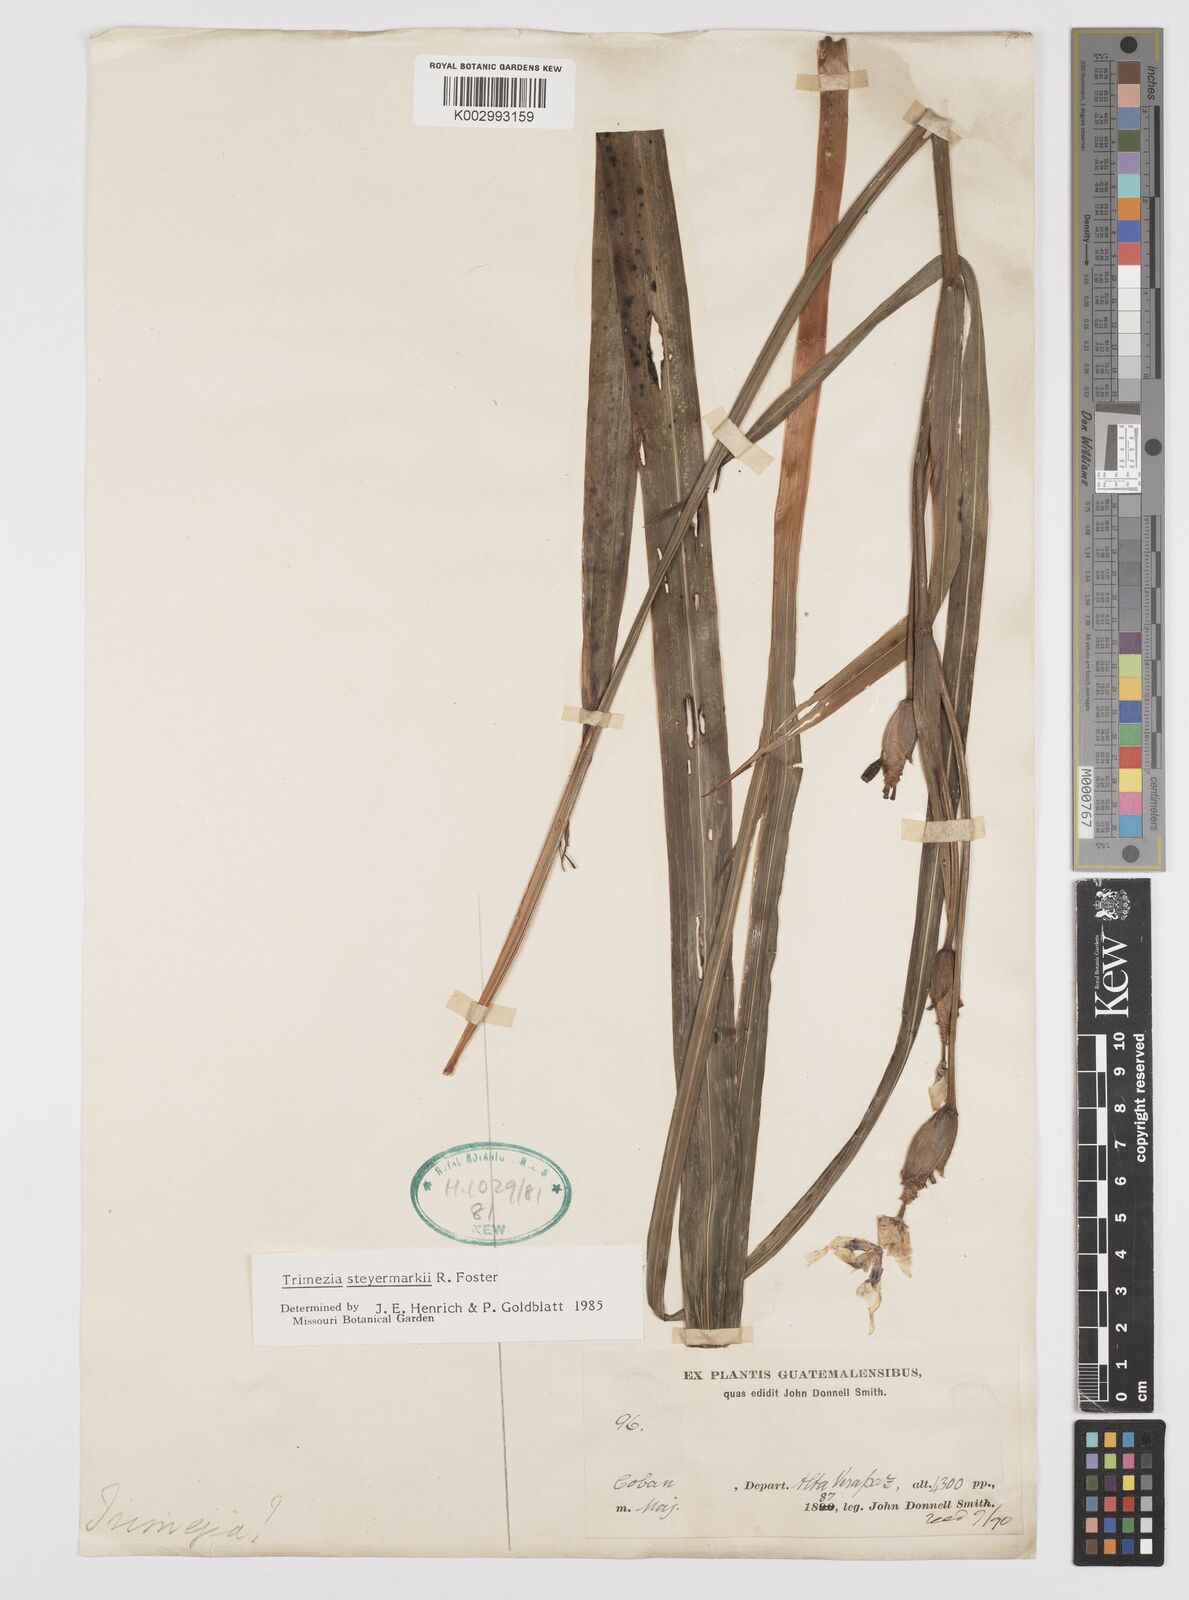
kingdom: Plantae
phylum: Tracheophyta
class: Liliopsida
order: Asparagales
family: Iridaceae
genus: Trimezia
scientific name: Trimezia steyermarkii
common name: Trimezia
